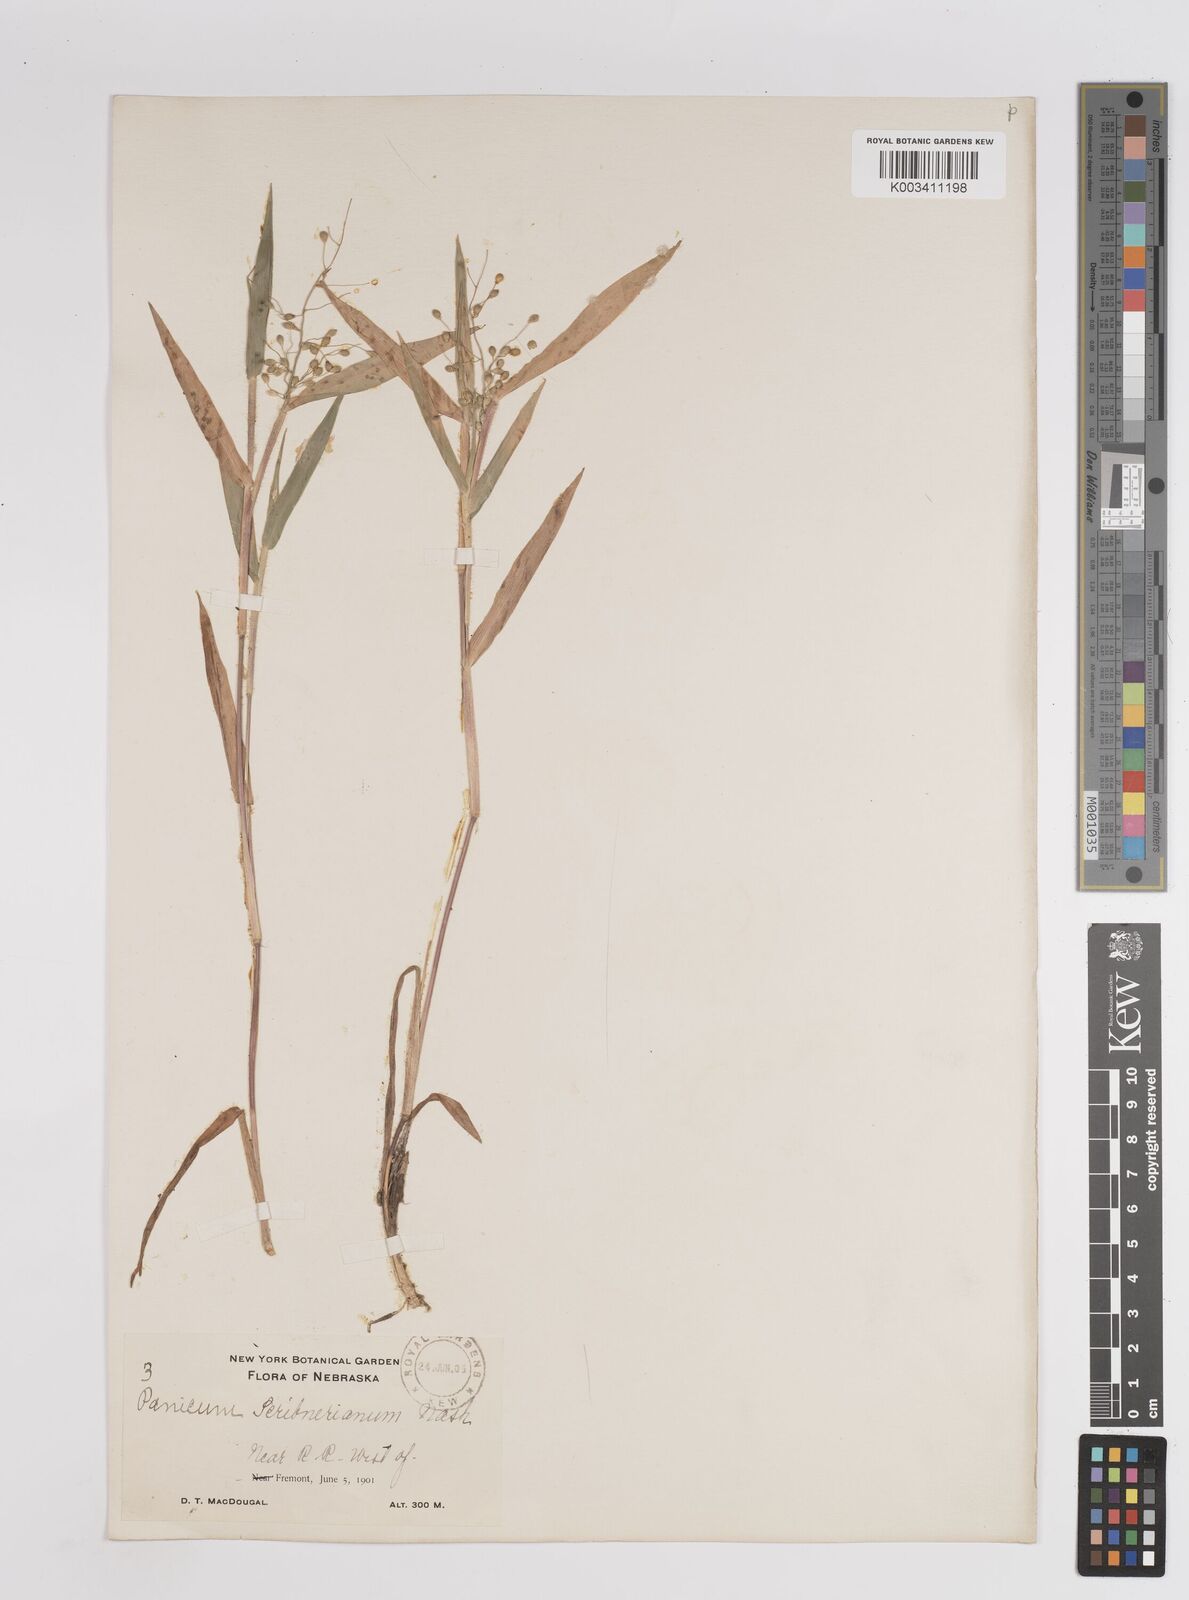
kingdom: Plantae
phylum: Tracheophyta
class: Liliopsida
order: Poales
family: Poaceae
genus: Dichanthelium
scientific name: Dichanthelium oligosanthes
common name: Few-anther obscuregrass
